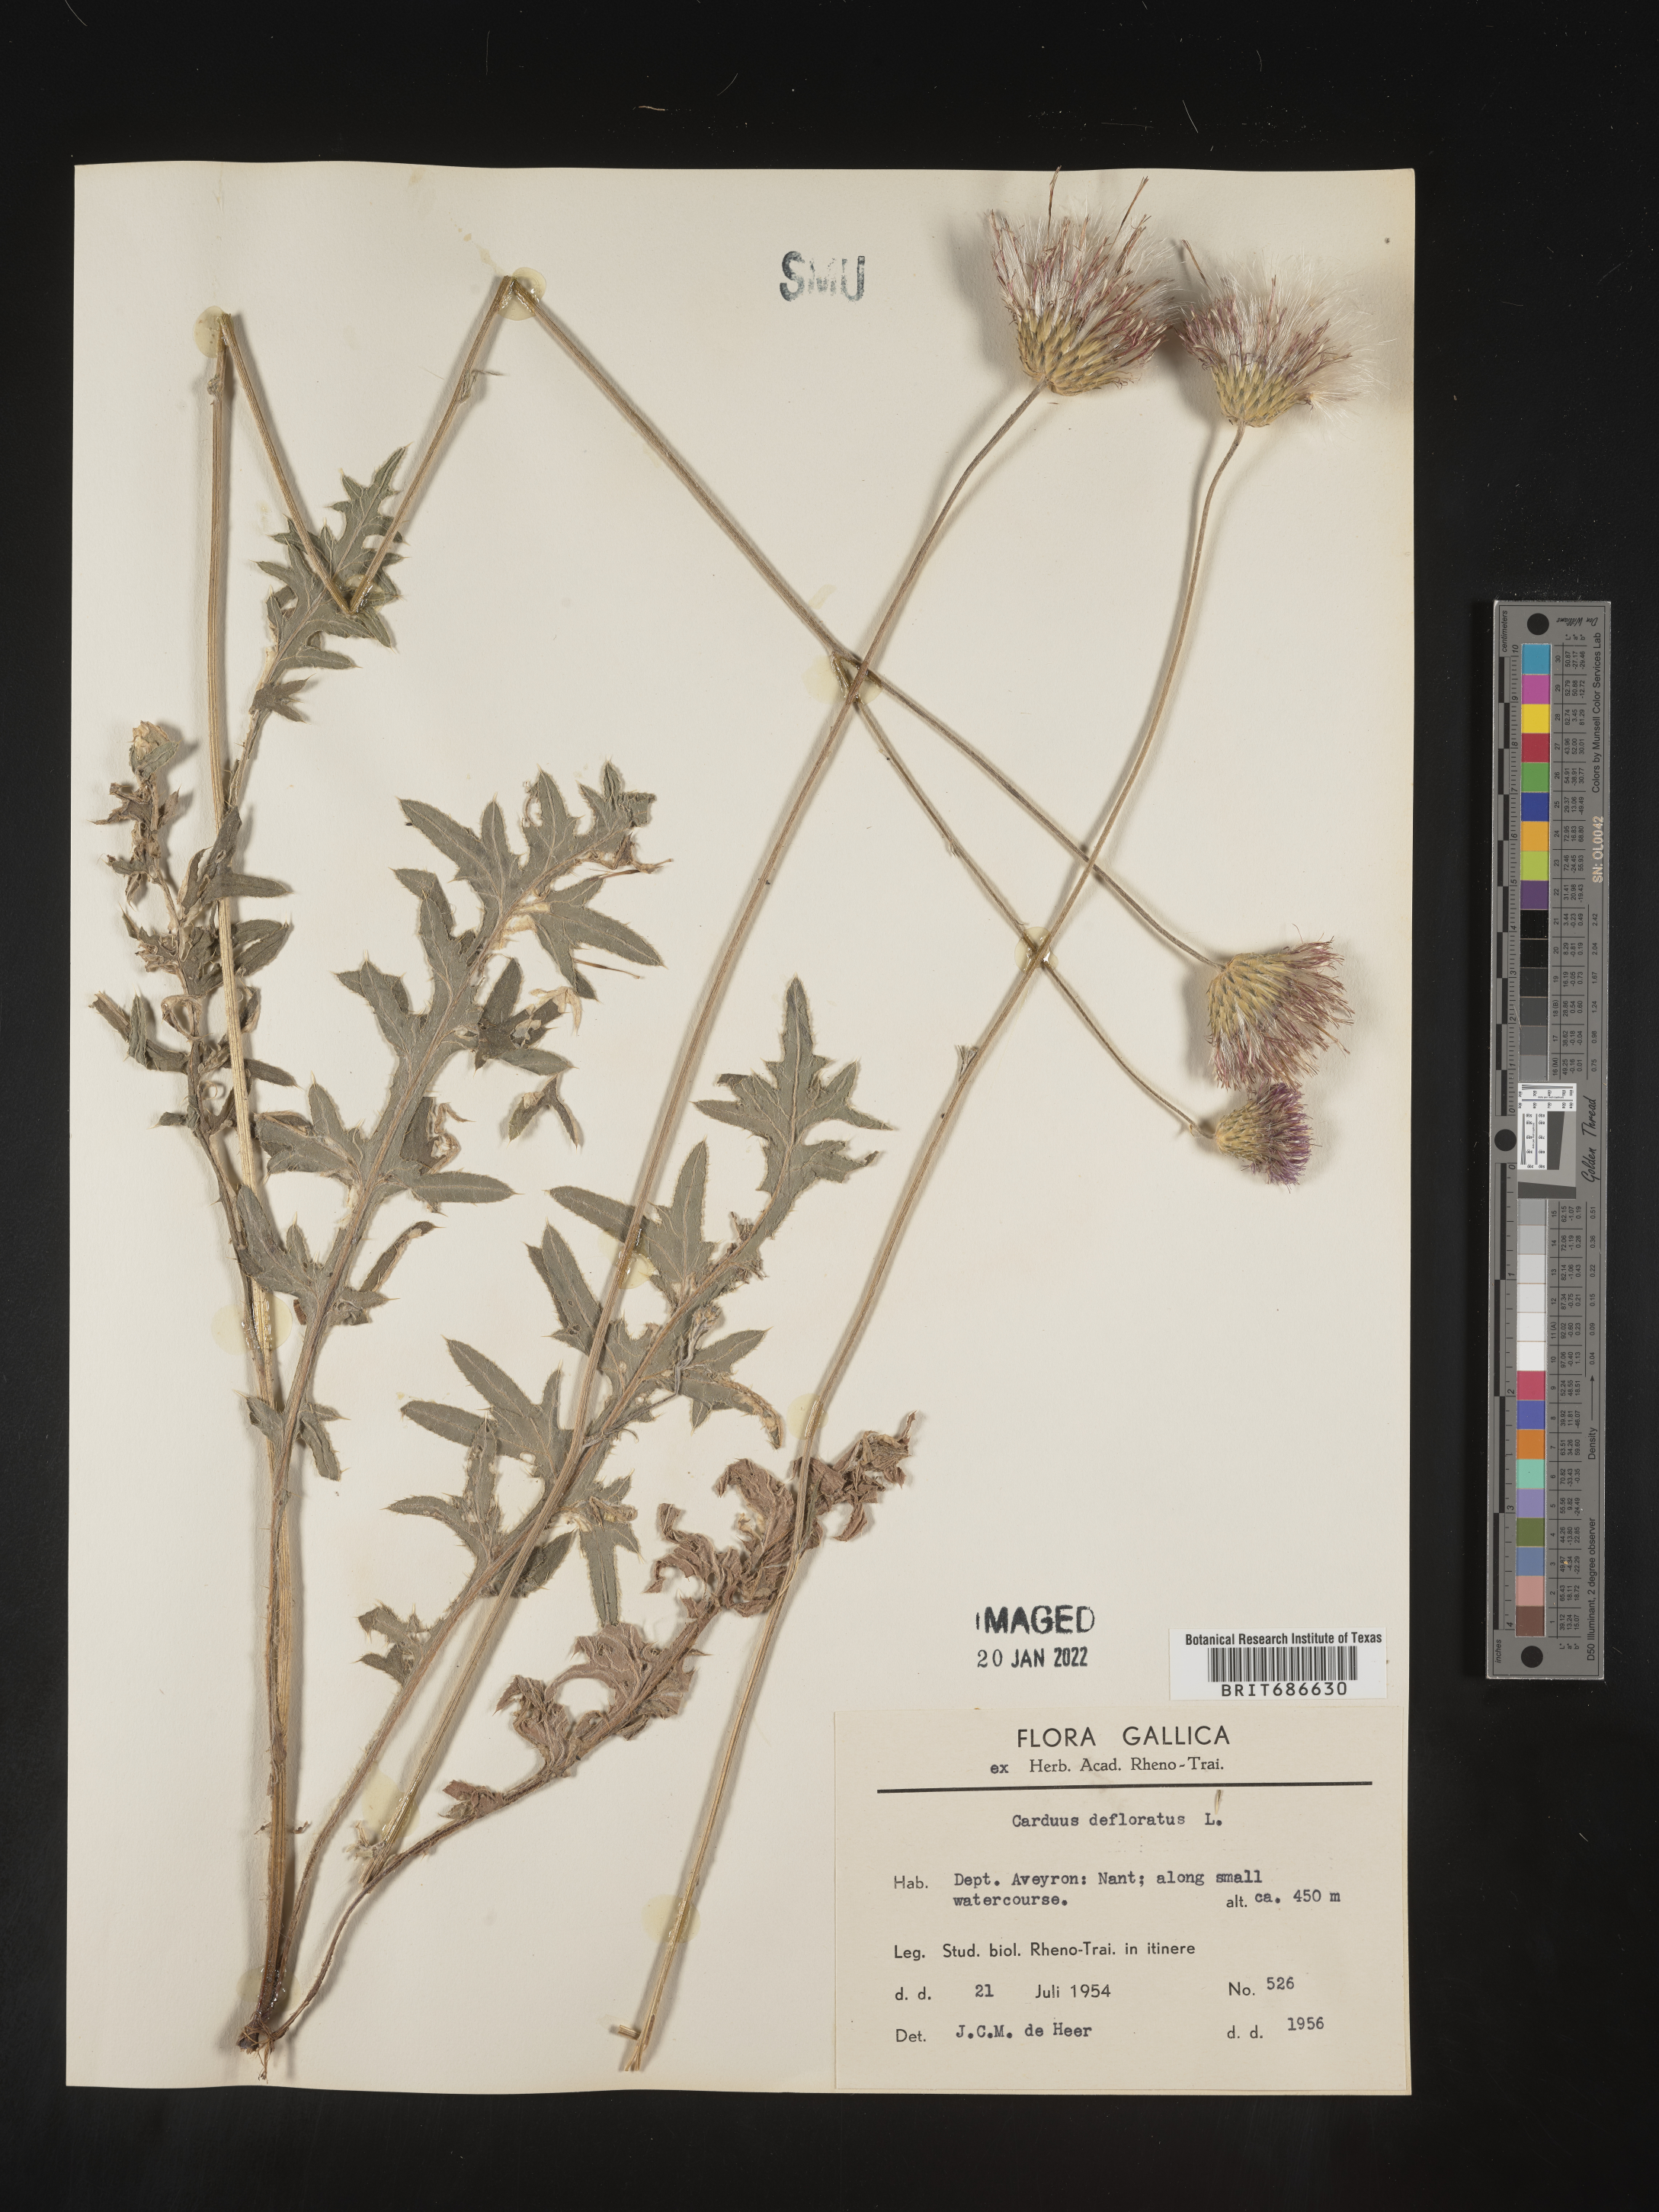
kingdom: Plantae
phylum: Tracheophyta
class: Magnoliopsida
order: Asterales
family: Asteraceae
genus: Carduus
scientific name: Carduus
